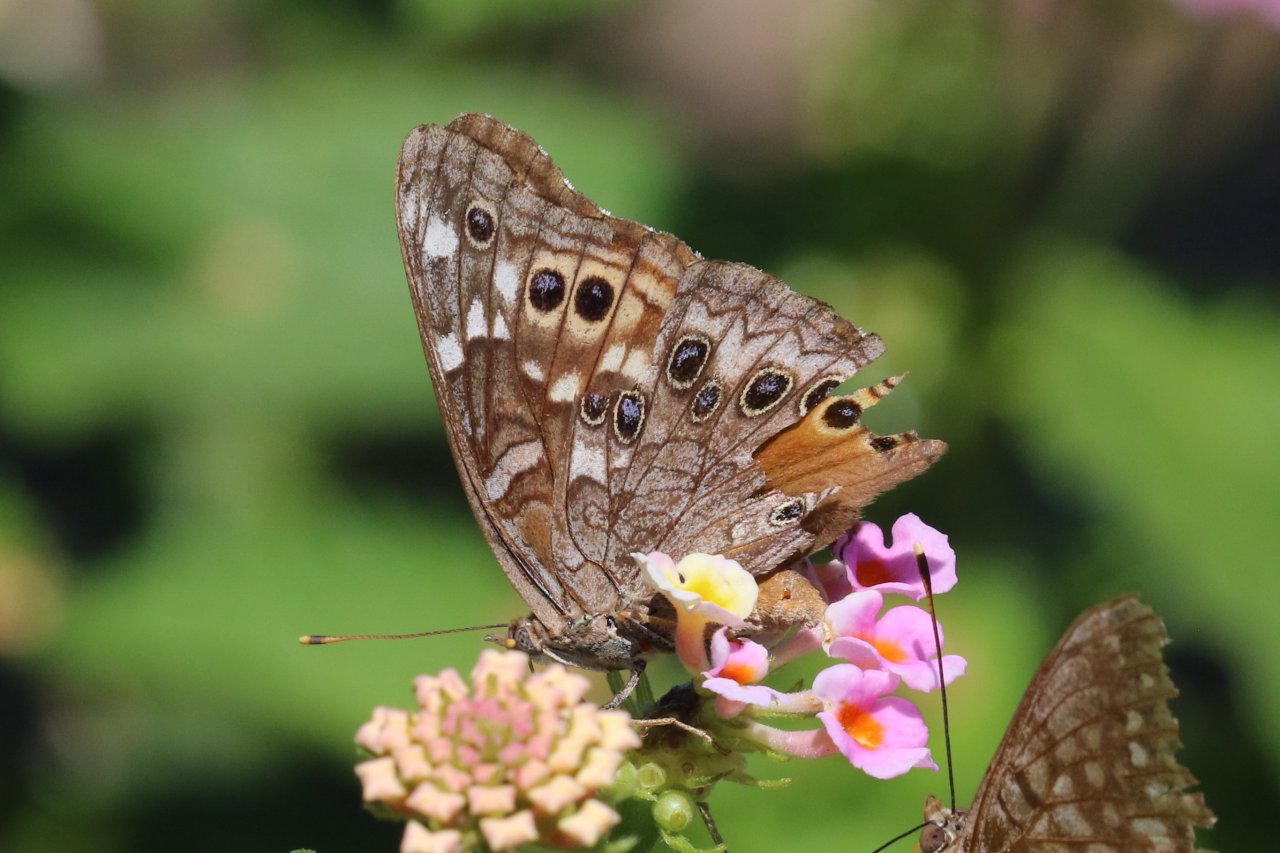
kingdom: Animalia
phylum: Arthropoda
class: Insecta
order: Lepidoptera
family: Nymphalidae
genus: Asterocampa
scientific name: Asterocampa leilia
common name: Empress Leilia
